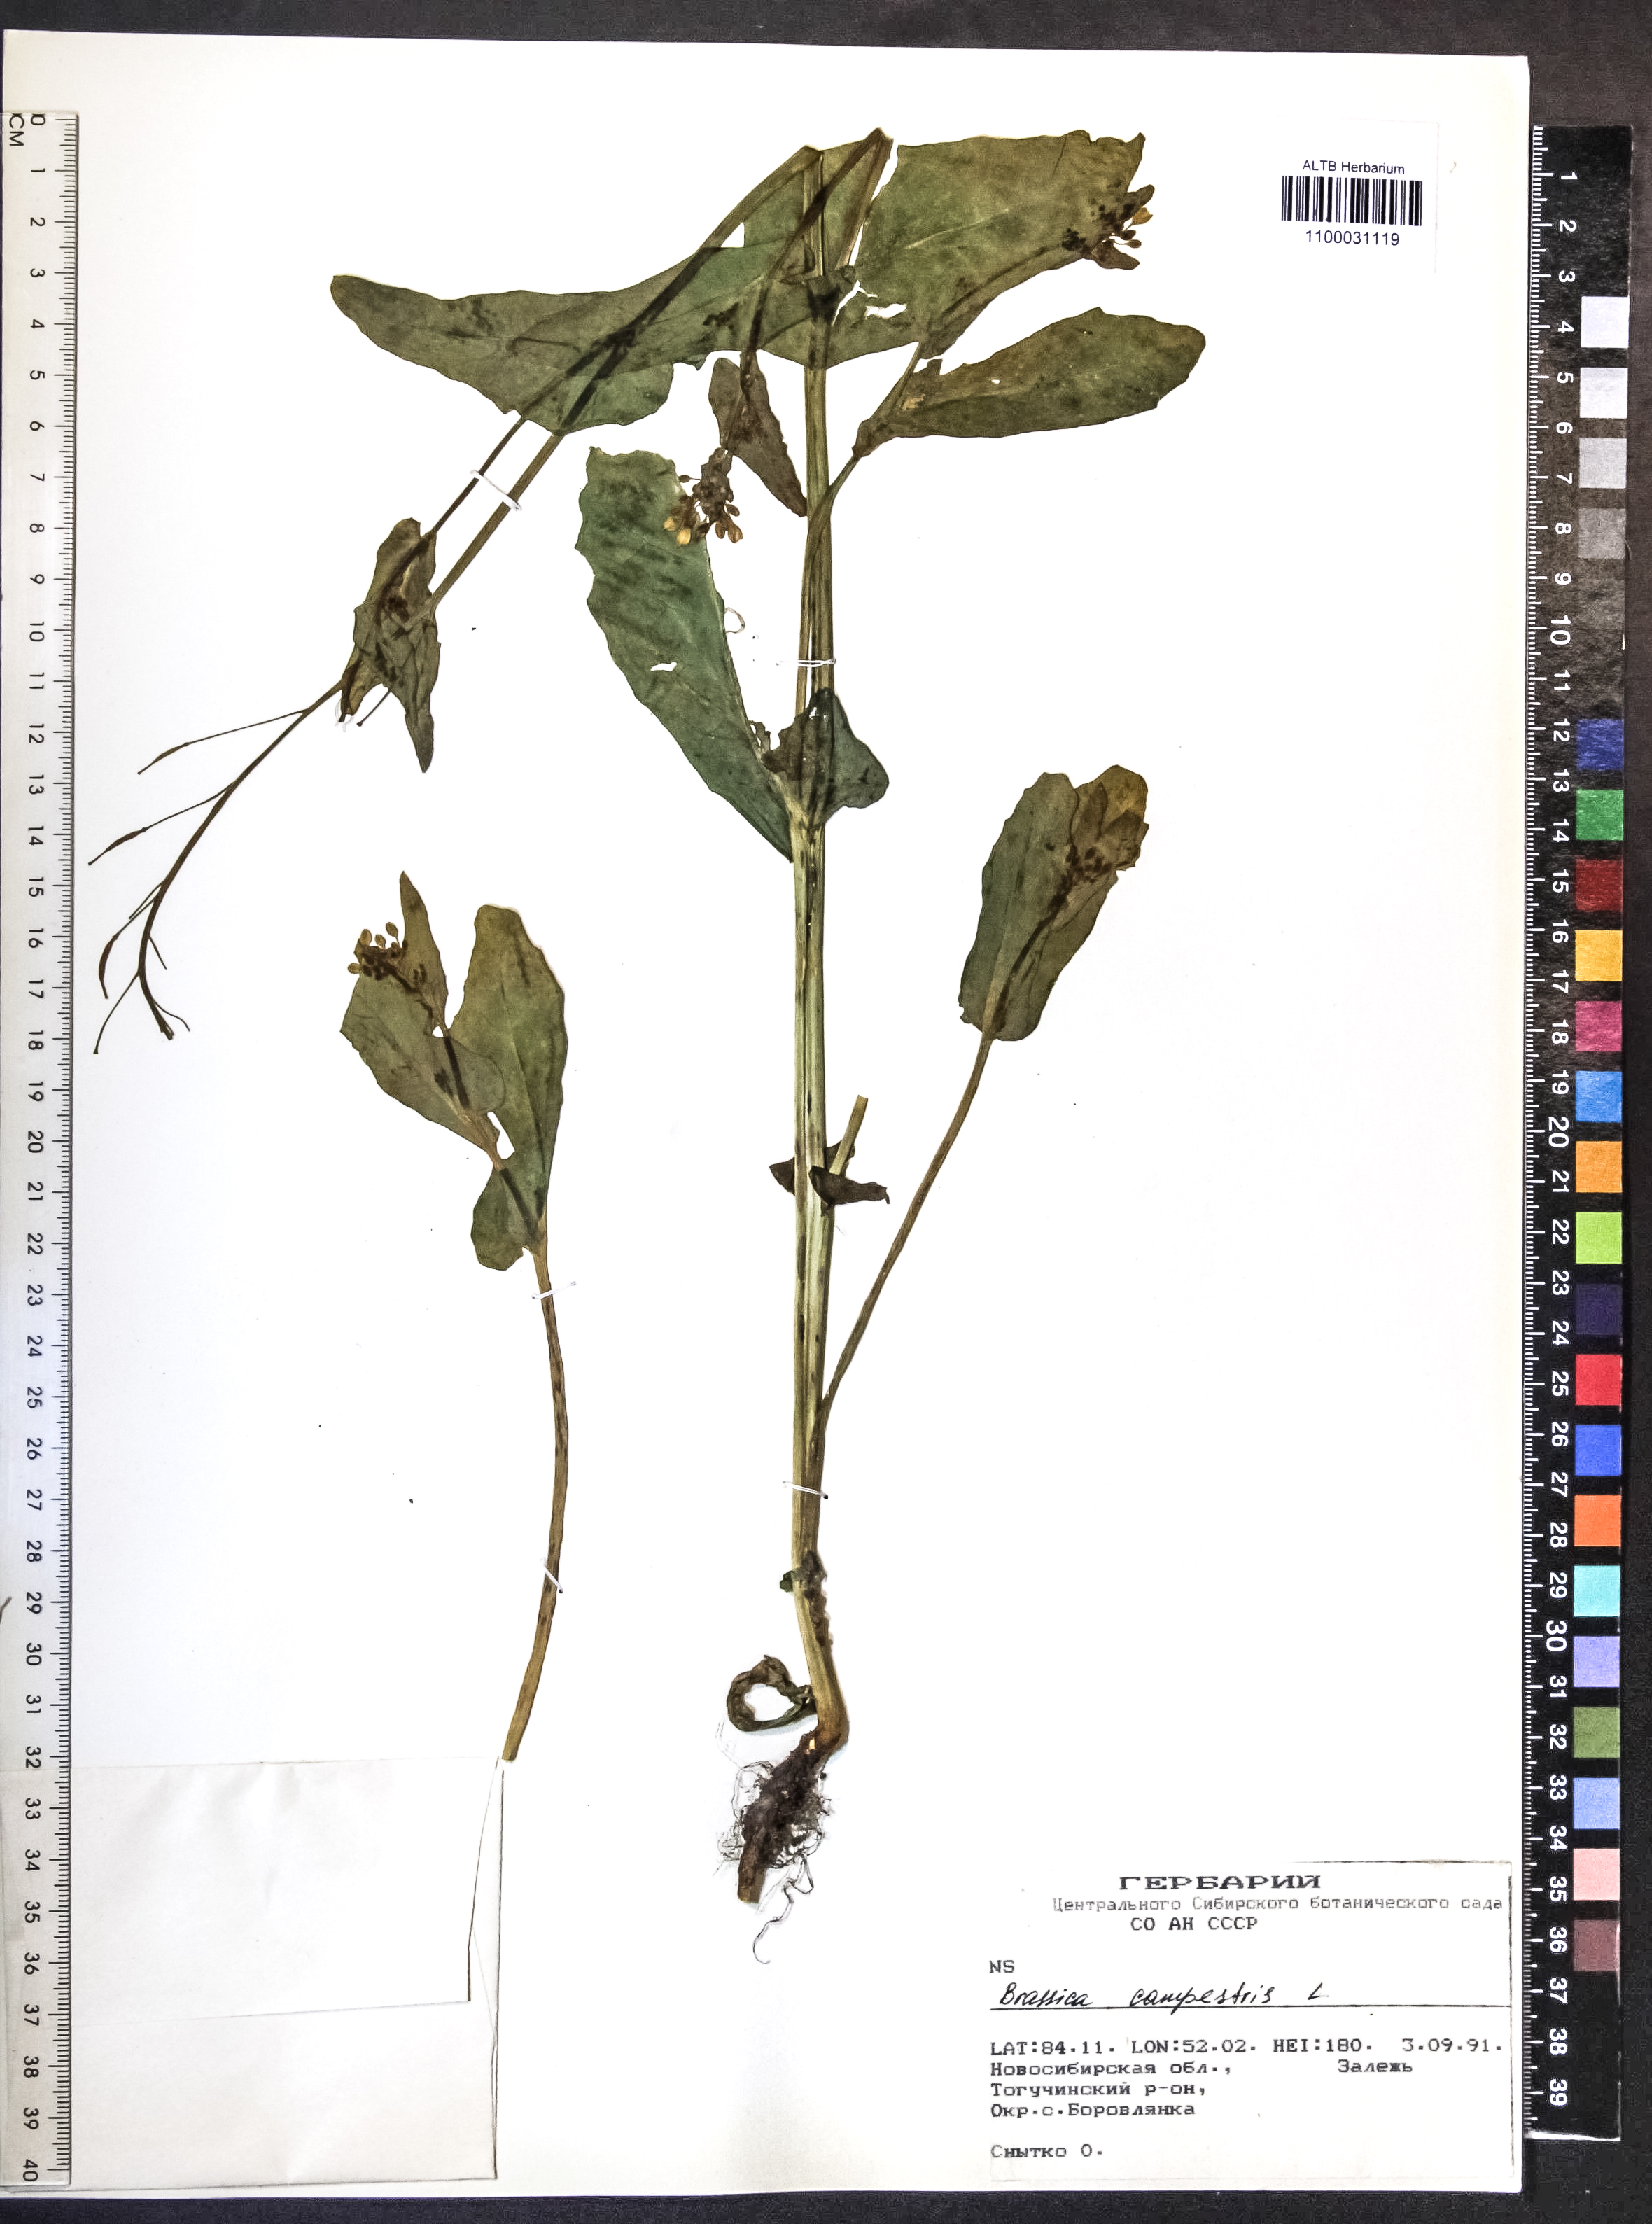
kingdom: Plantae
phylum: Tracheophyta
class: Magnoliopsida
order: Brassicales
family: Brassicaceae
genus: Brassica
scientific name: Brassica rapa
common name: Field mustard
